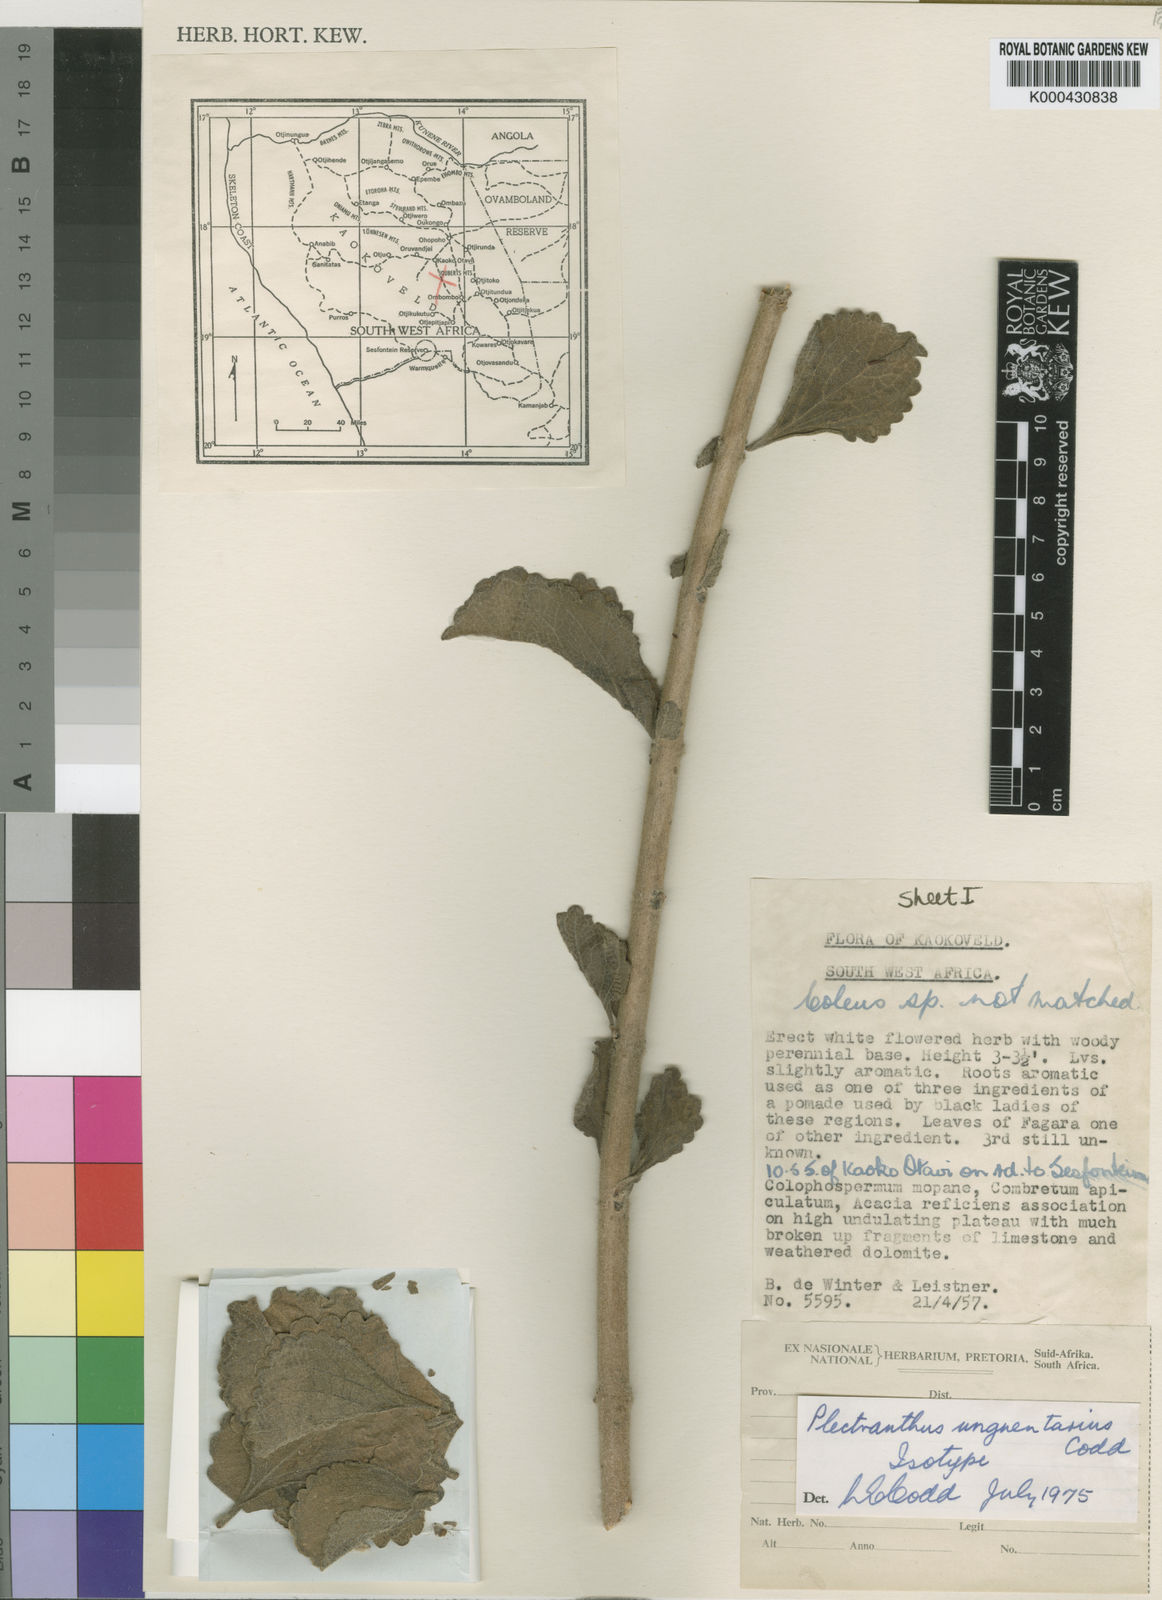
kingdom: Plantae
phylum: Tracheophyta
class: Magnoliopsida
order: Lamiales
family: Lamiaceae
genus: Coleus
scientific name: Coleus unguentarius
